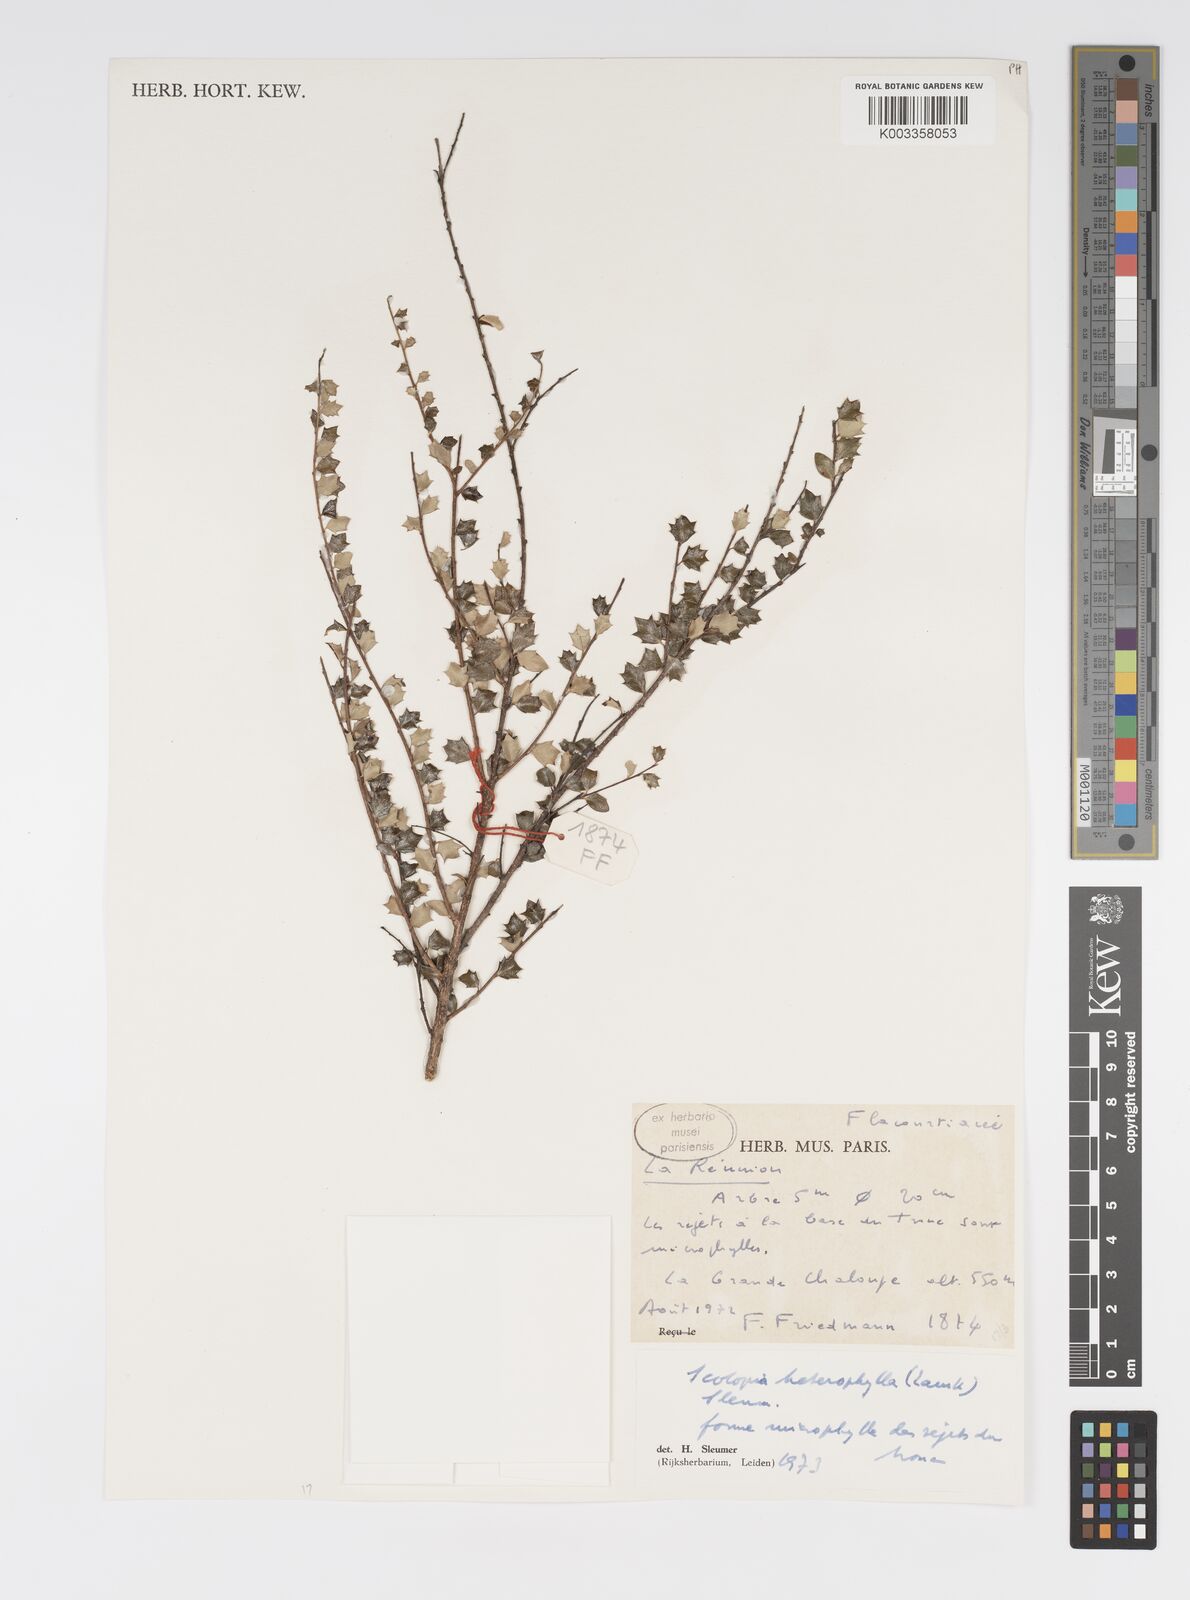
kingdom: Plantae
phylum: Tracheophyta
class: Magnoliopsida
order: Malpighiales
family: Salicaceae
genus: Scolopia
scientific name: Scolopia heterophylla
